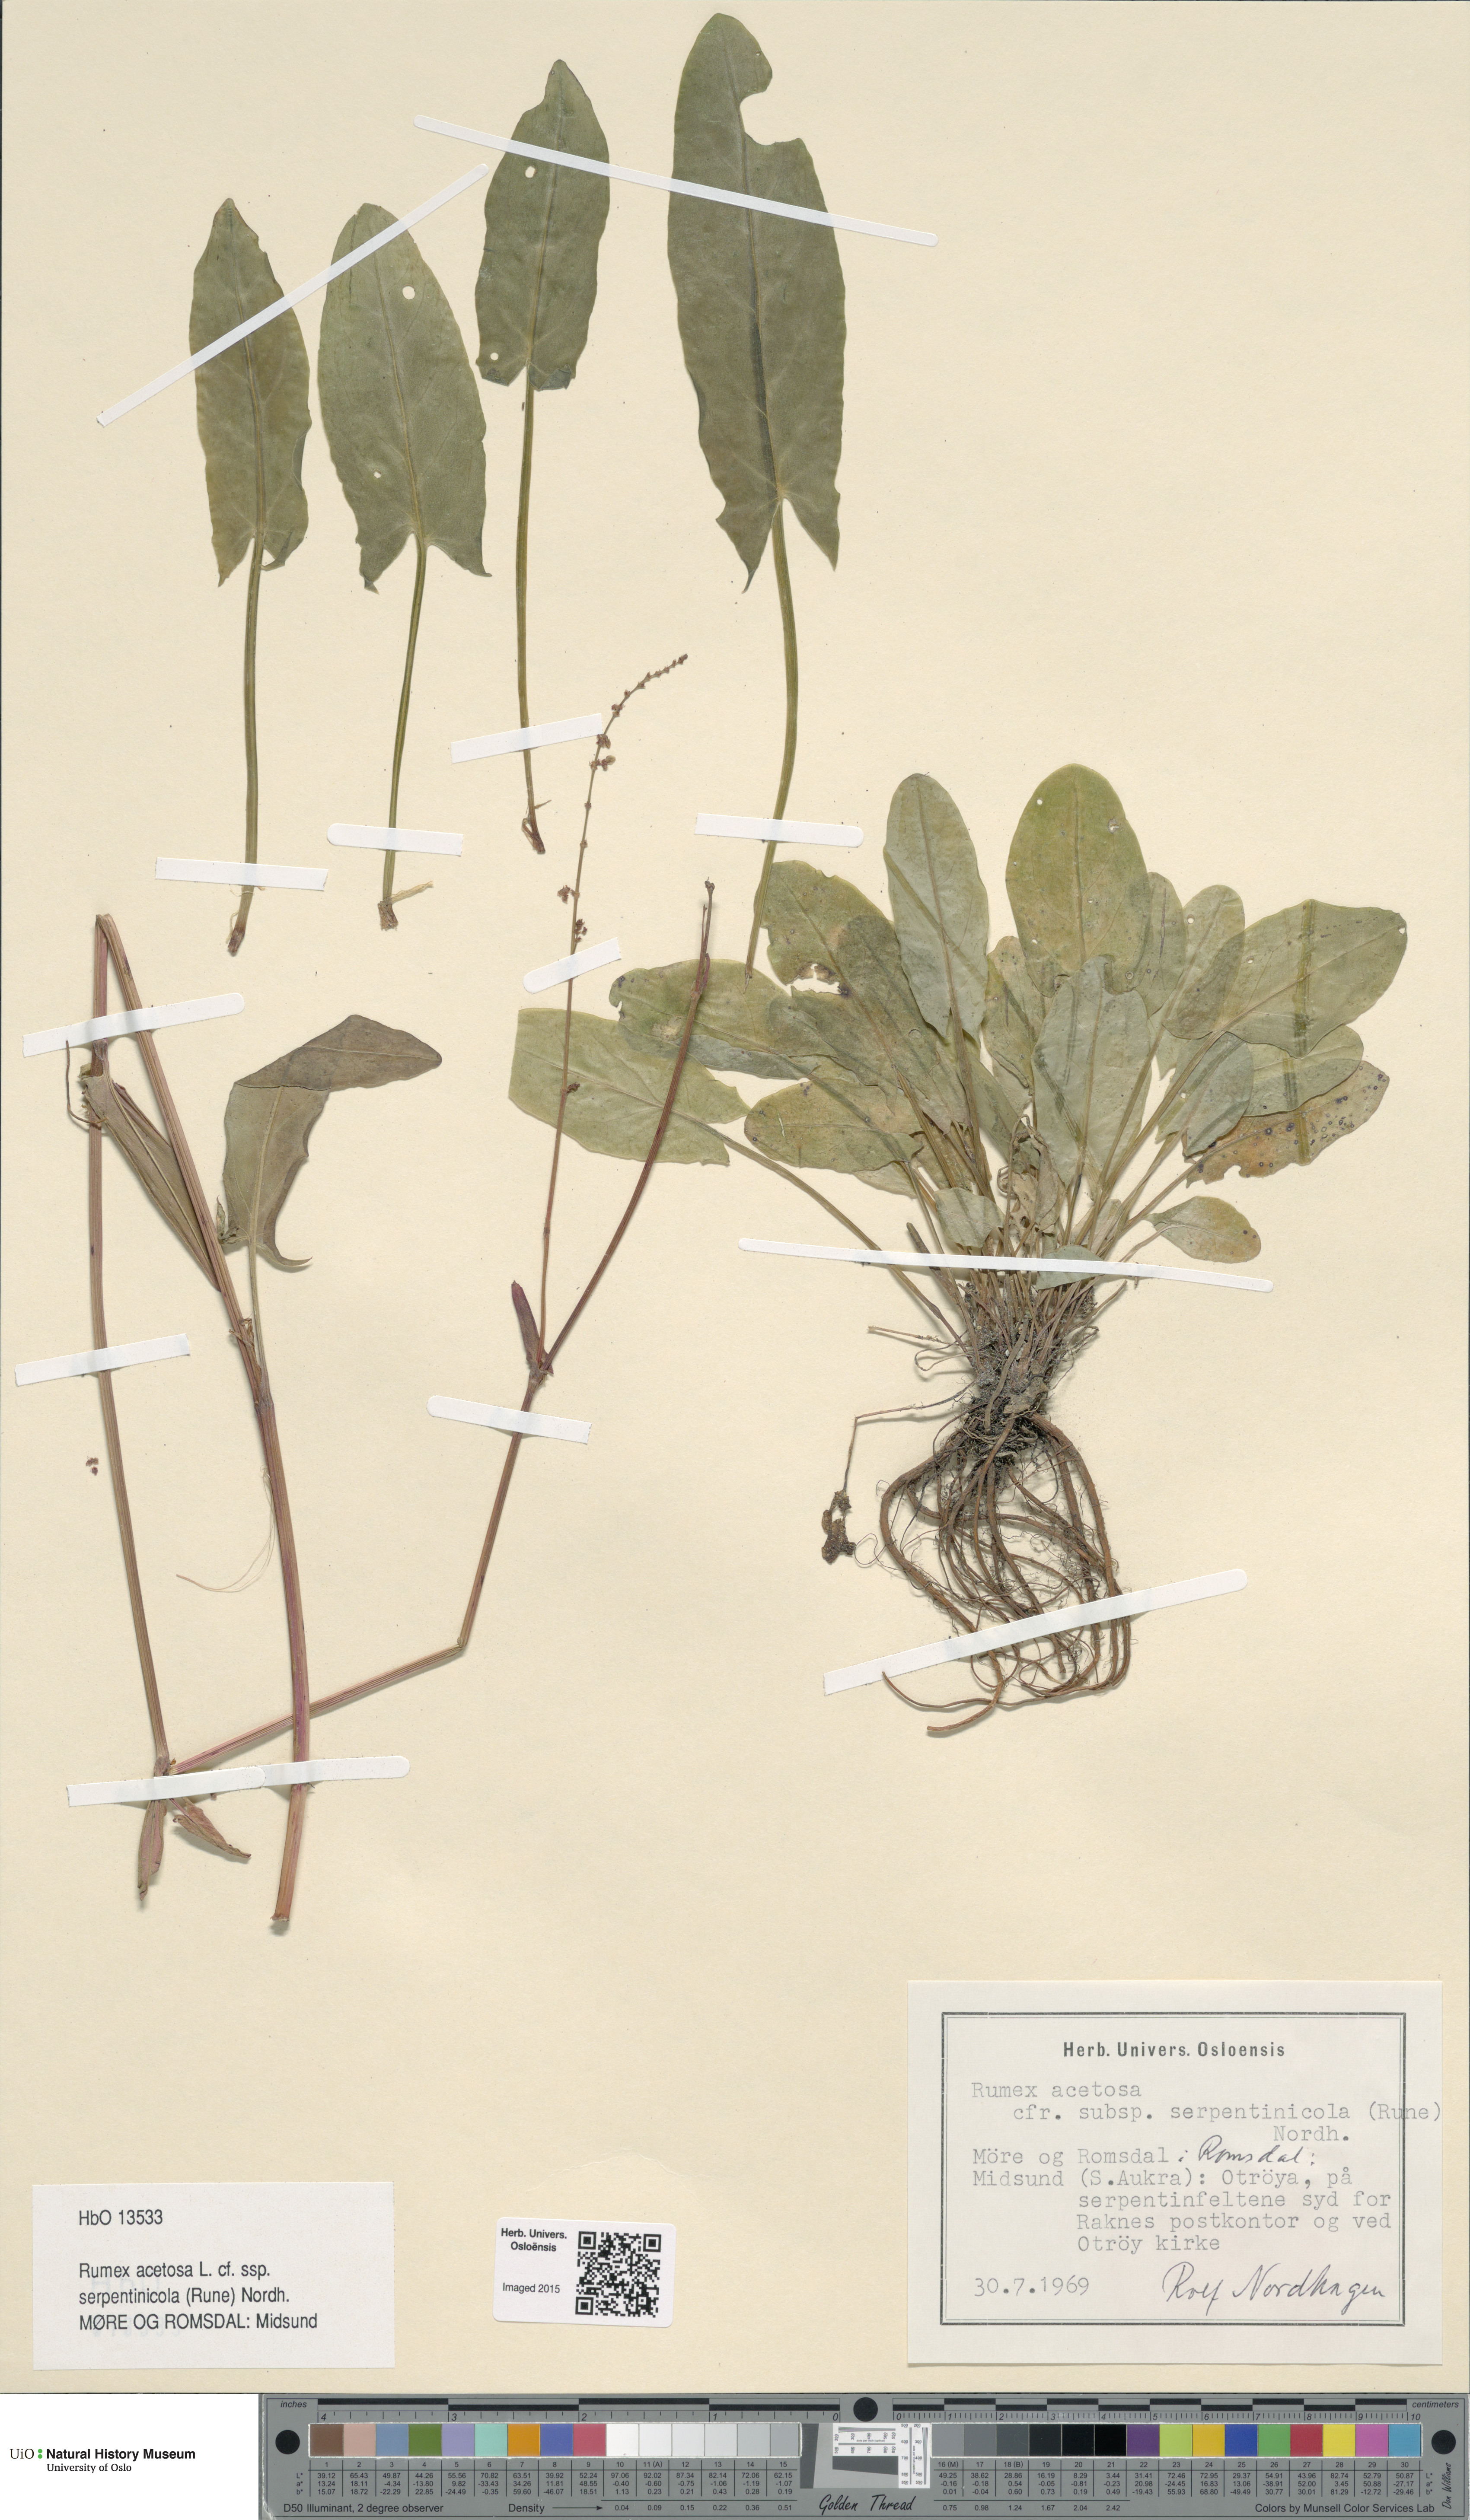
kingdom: Plantae
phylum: Tracheophyta
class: Magnoliopsida
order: Caryophyllales
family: Polygonaceae
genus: Rumex
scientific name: Rumex acetosa
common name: Garden sorrel
